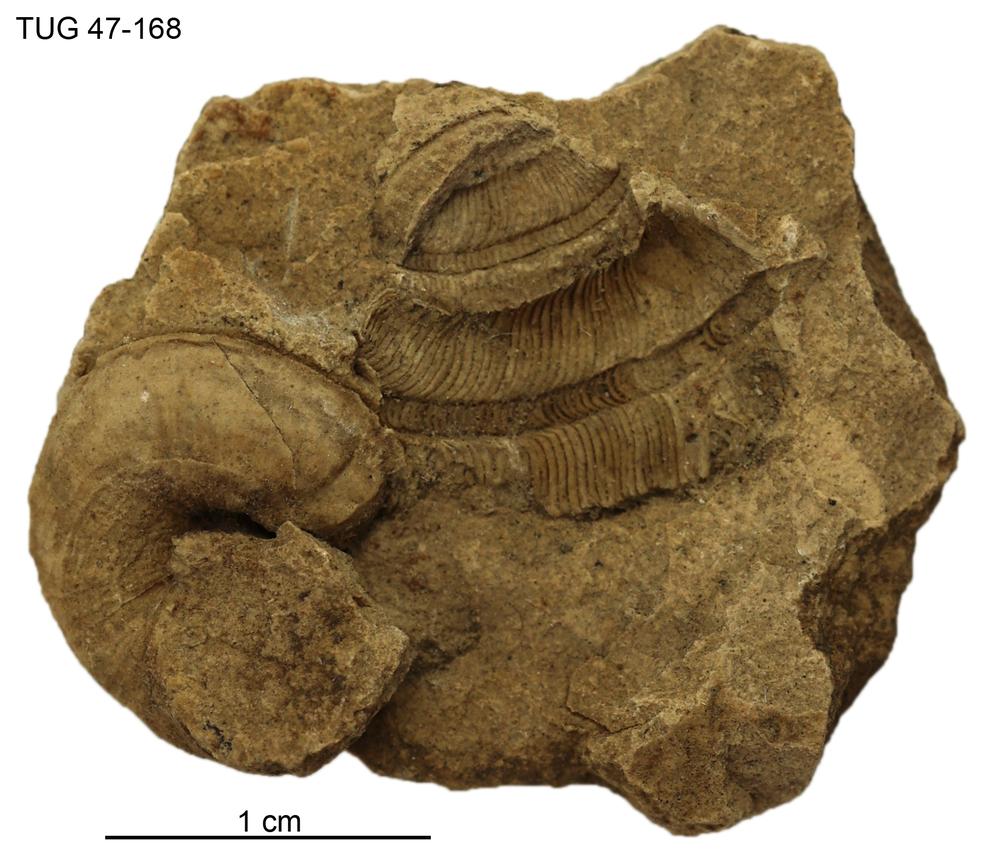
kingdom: Animalia
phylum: Mollusca
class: Gastropoda
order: Pleurotomariida
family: Phanerotrematidae
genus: Brachytomaria
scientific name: Brachytomaria Pleurotomaria baltica
